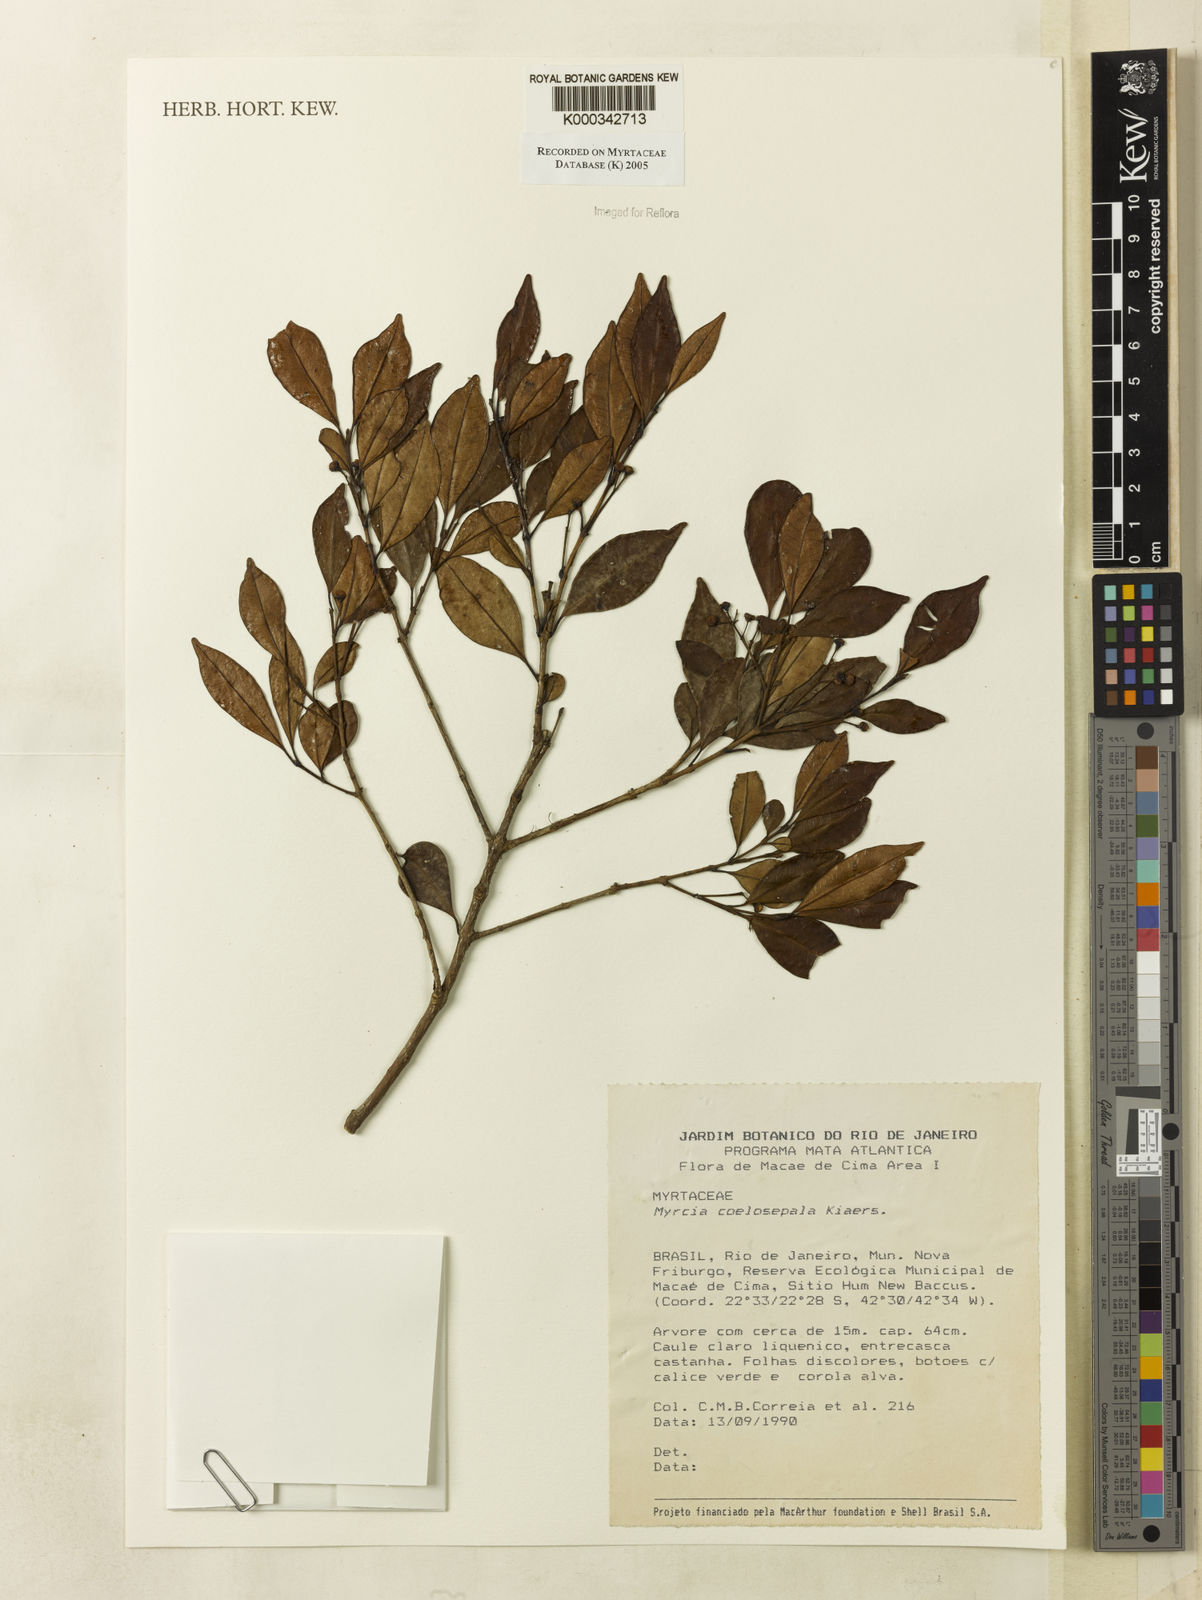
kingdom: Plantae
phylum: Tracheophyta
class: Magnoliopsida
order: Myrtales
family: Myrtaceae
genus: Myrcia
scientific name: Myrcia coelosepala
